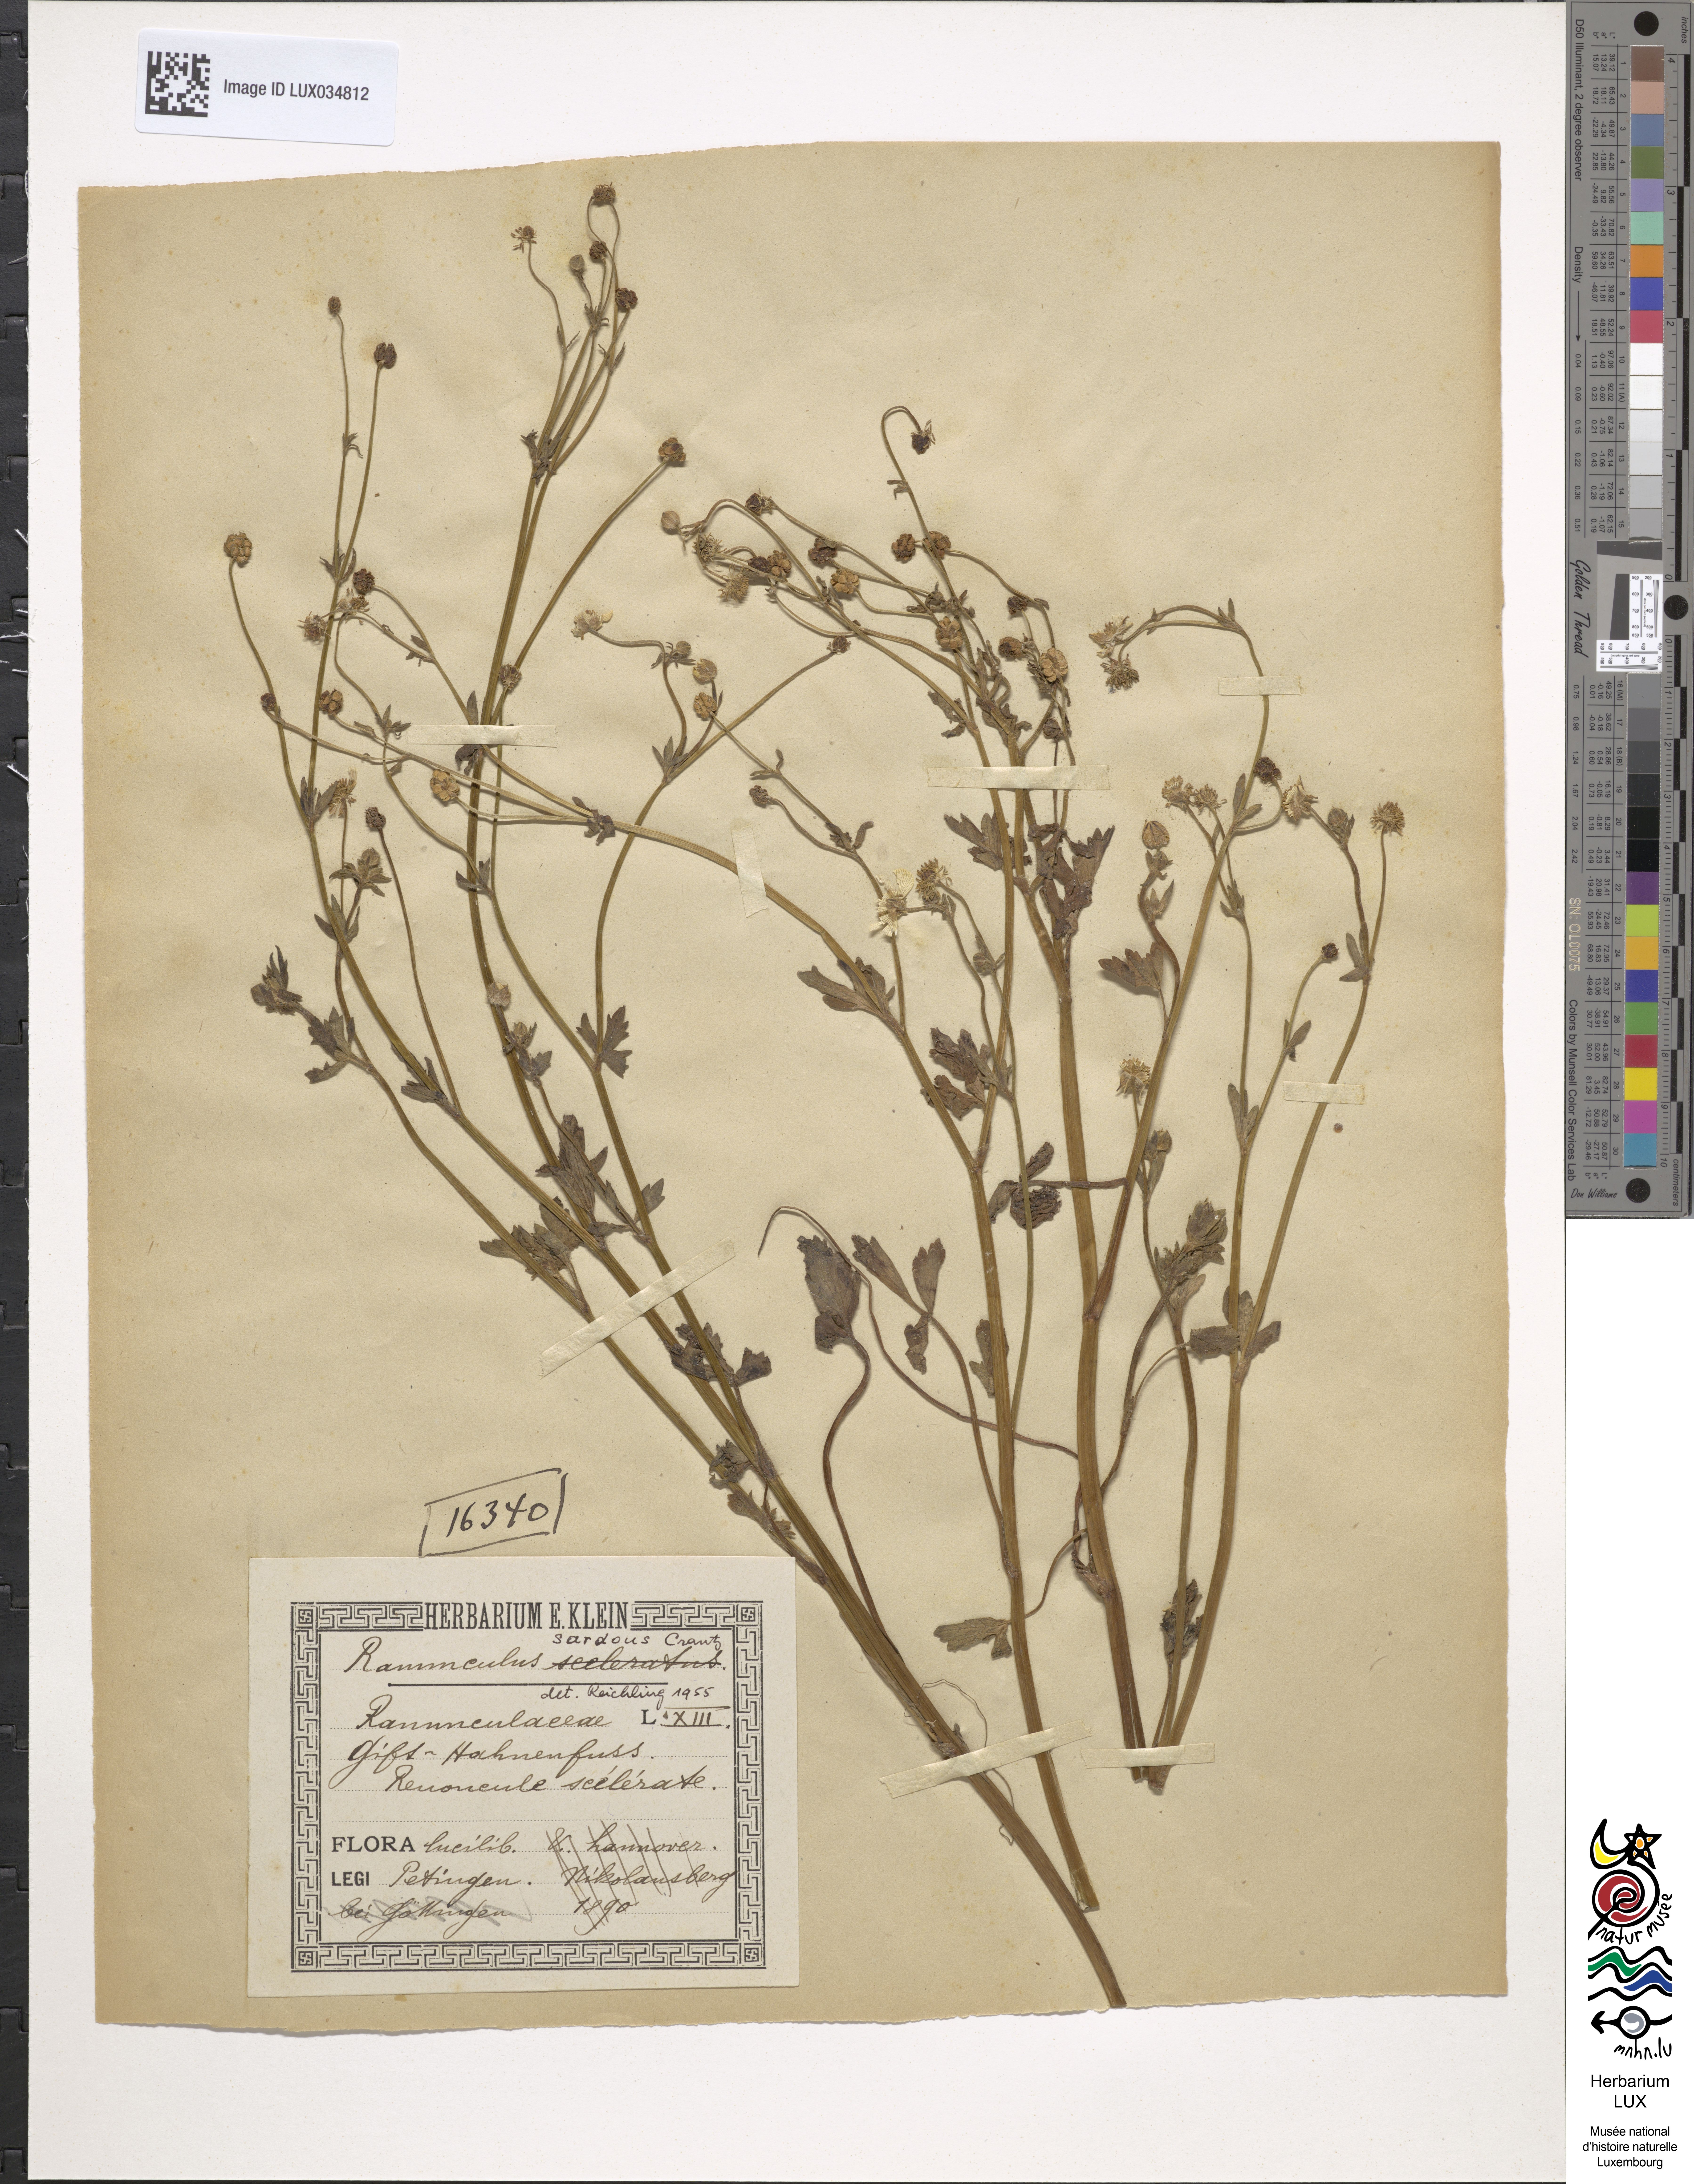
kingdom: Plantae
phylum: Tracheophyta
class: Magnoliopsida
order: Ranunculales
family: Ranunculaceae
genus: Ranunculus
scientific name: Ranunculus sardous
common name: Hairy buttercup
